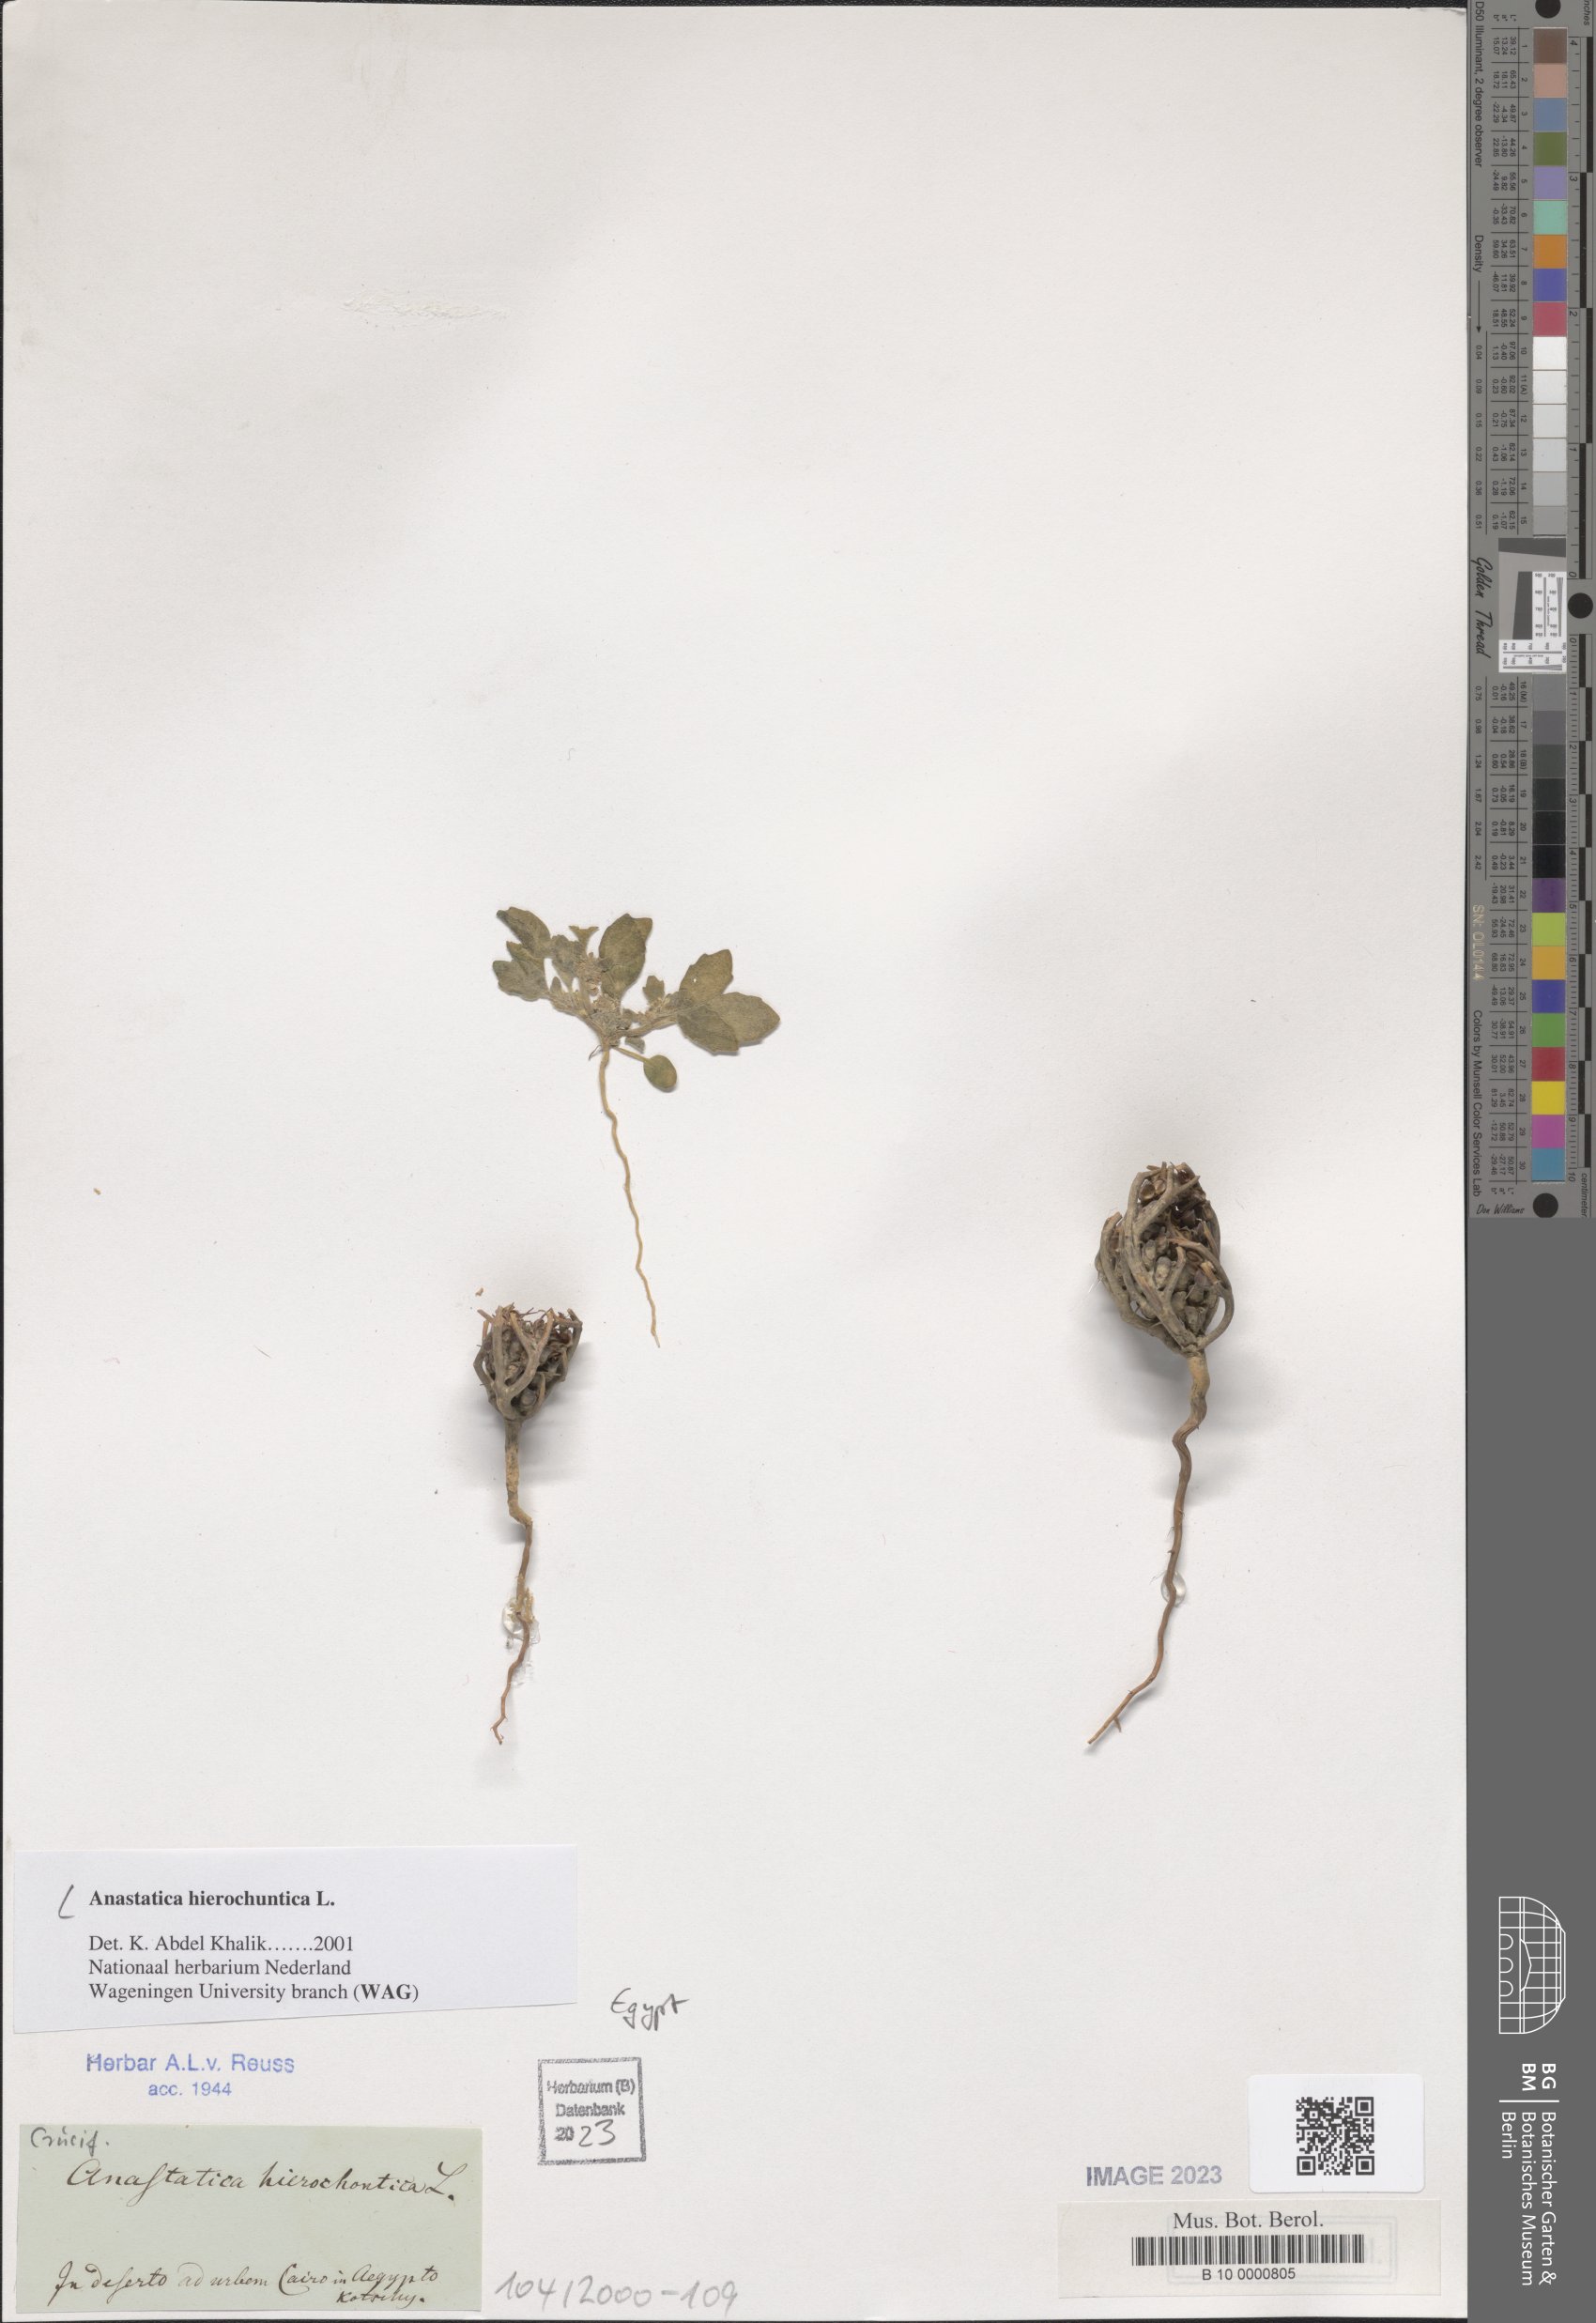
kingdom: Plantae
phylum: Tracheophyta
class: Magnoliopsida
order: Brassicales
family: Brassicaceae
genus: Anastatica
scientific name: Anastatica hierochuntica
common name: Rose-of-jericho
